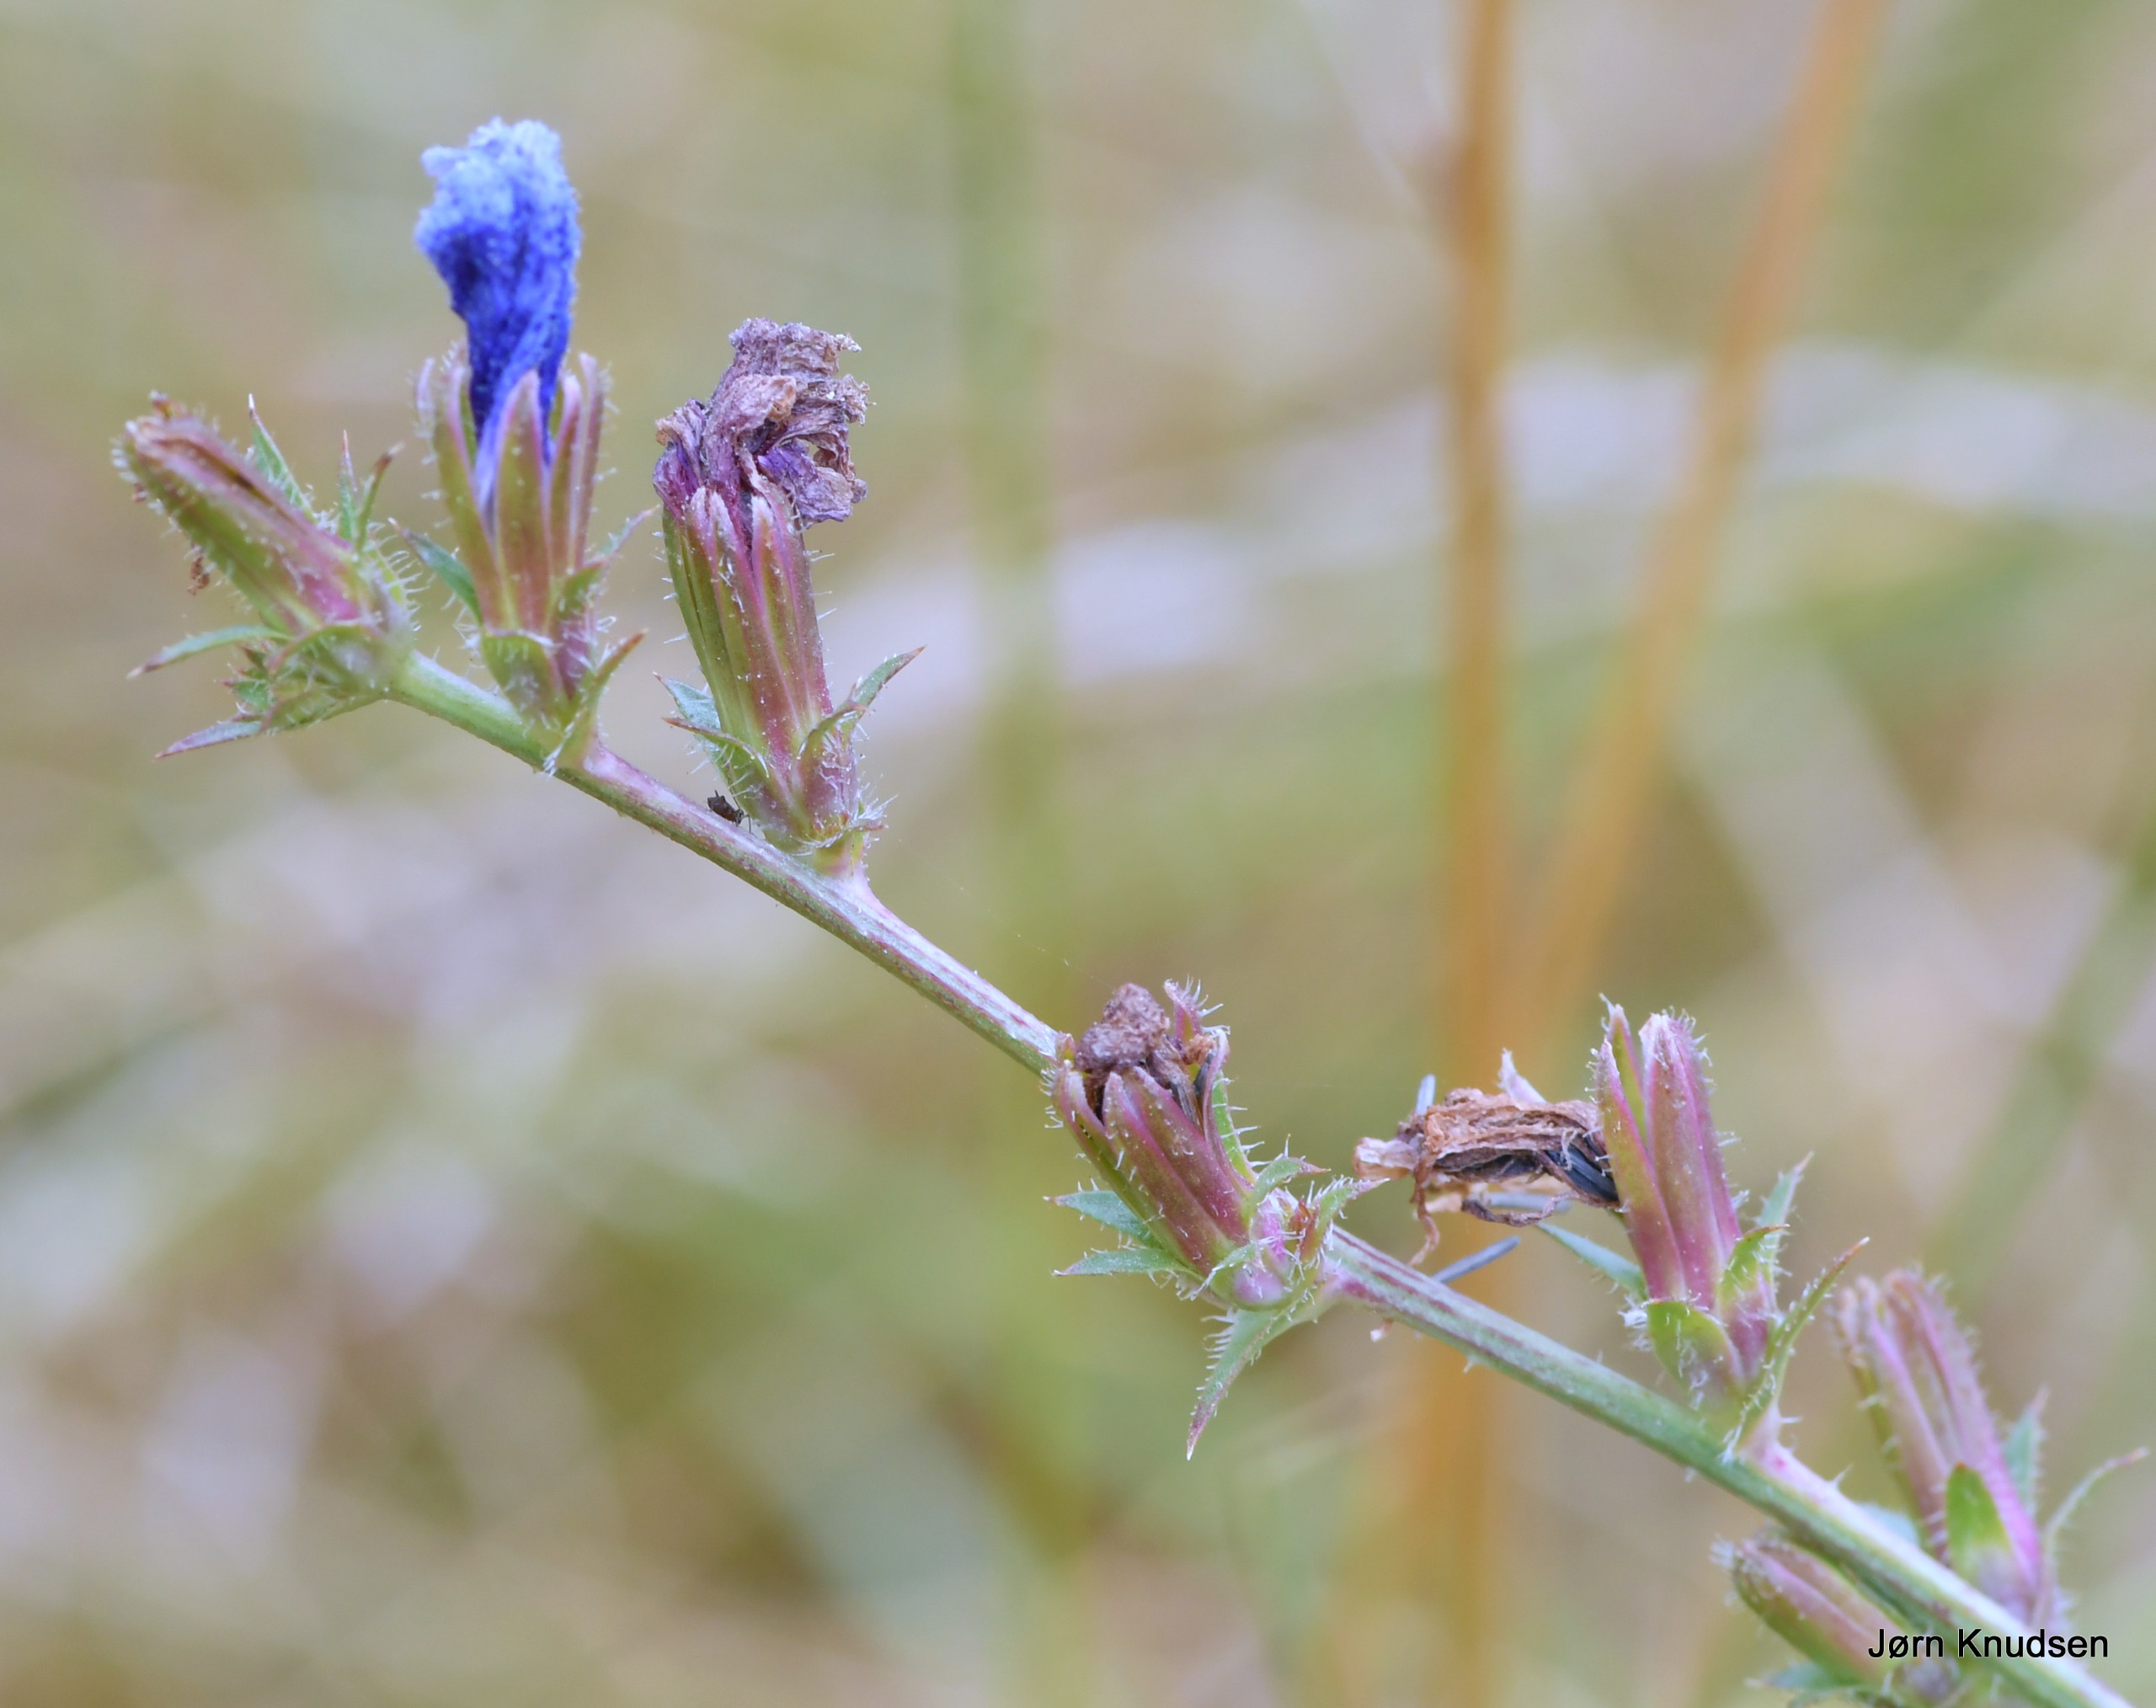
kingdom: Plantae
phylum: Tracheophyta
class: Magnoliopsida
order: Asterales
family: Asteraceae
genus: Cichorium
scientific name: Cichorium intybus
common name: Cikorie
